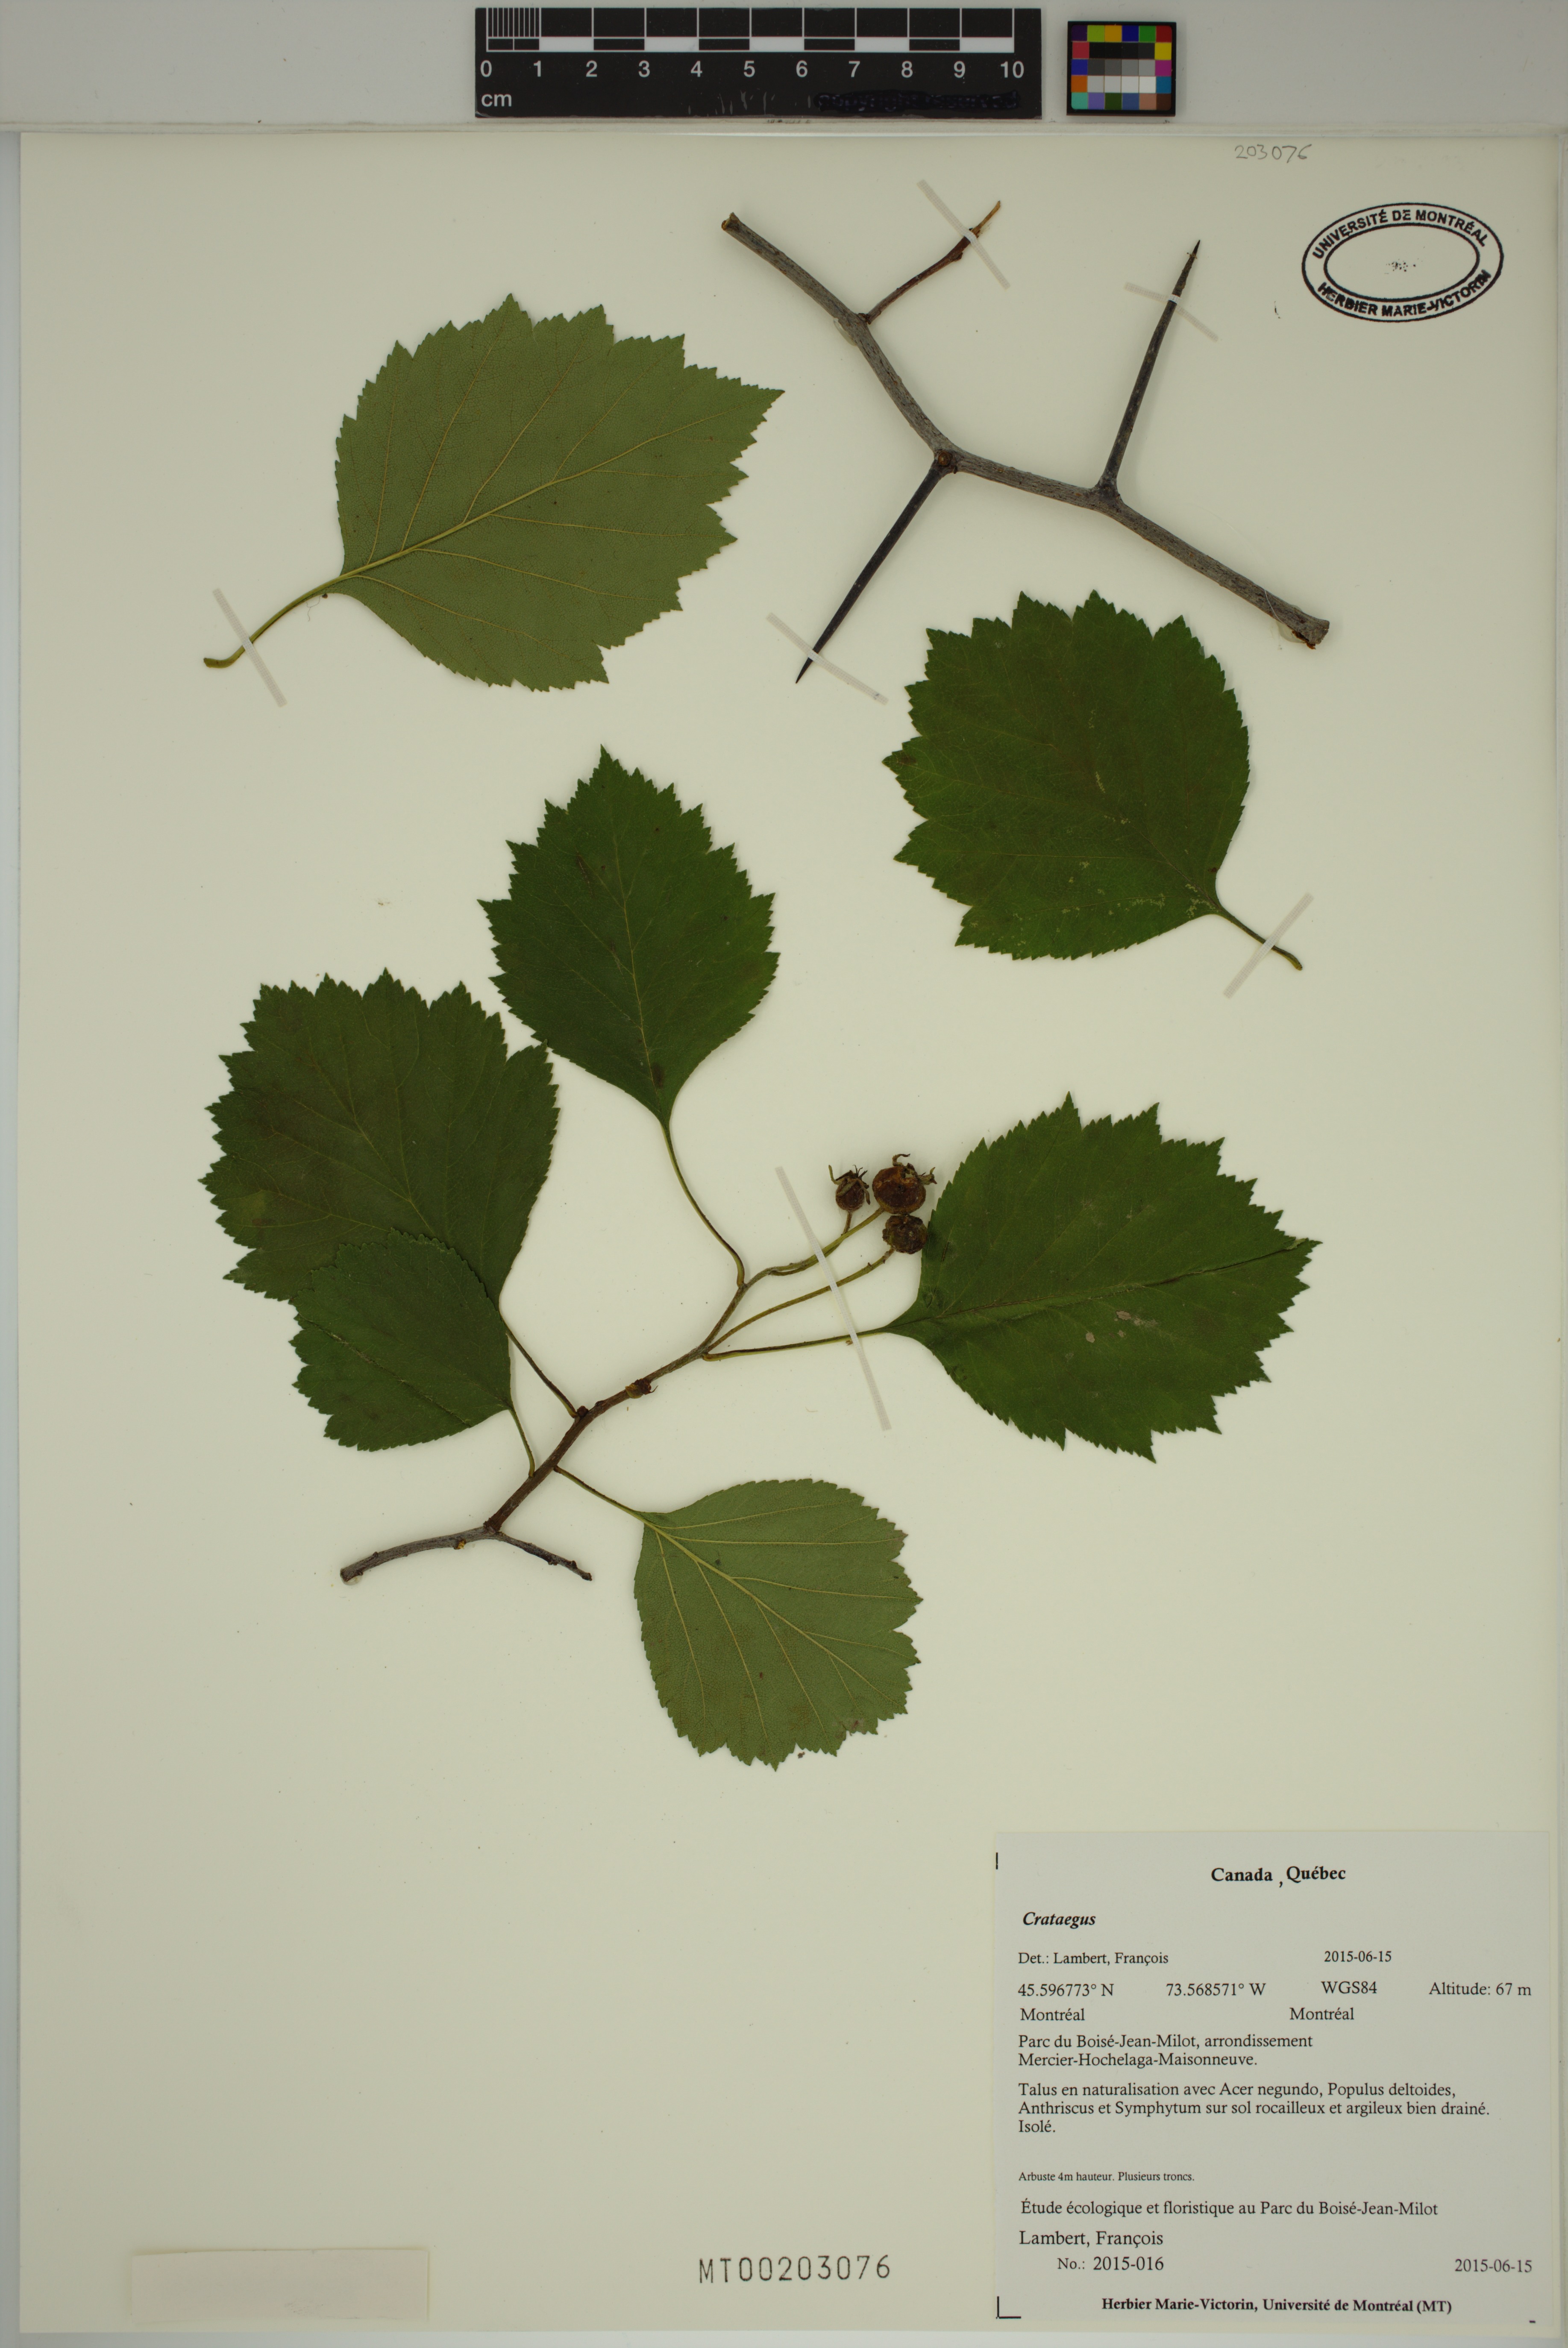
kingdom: Plantae
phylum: Tracheophyta
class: Magnoliopsida
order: Rosales
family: Rosaceae
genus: Crataegus
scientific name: Crataegus
